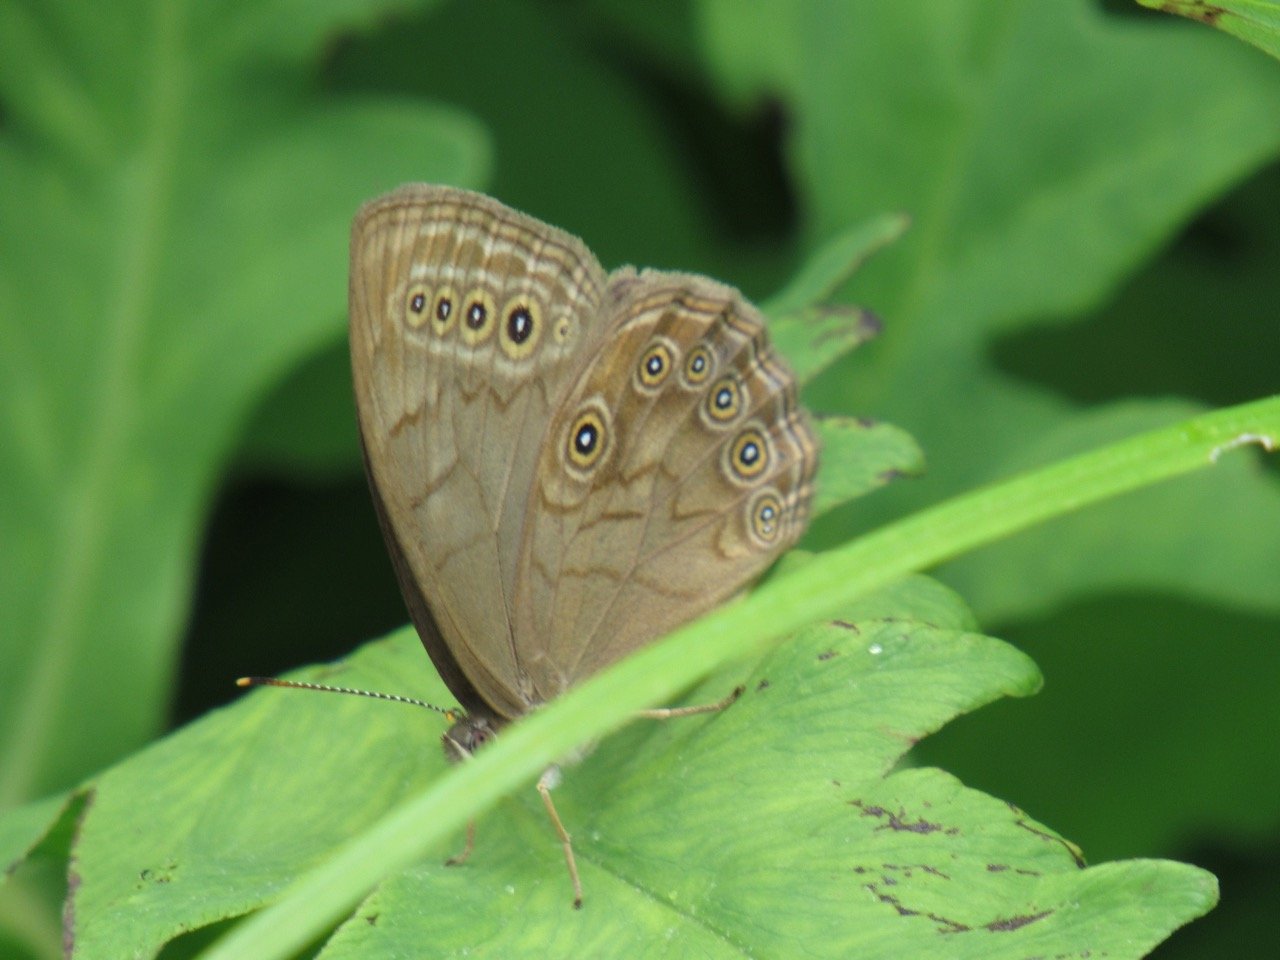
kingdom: Animalia
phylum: Arthropoda
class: Insecta
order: Lepidoptera
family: Nymphalidae
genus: Lethe
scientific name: Lethe eurydice
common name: Eyed Brown
